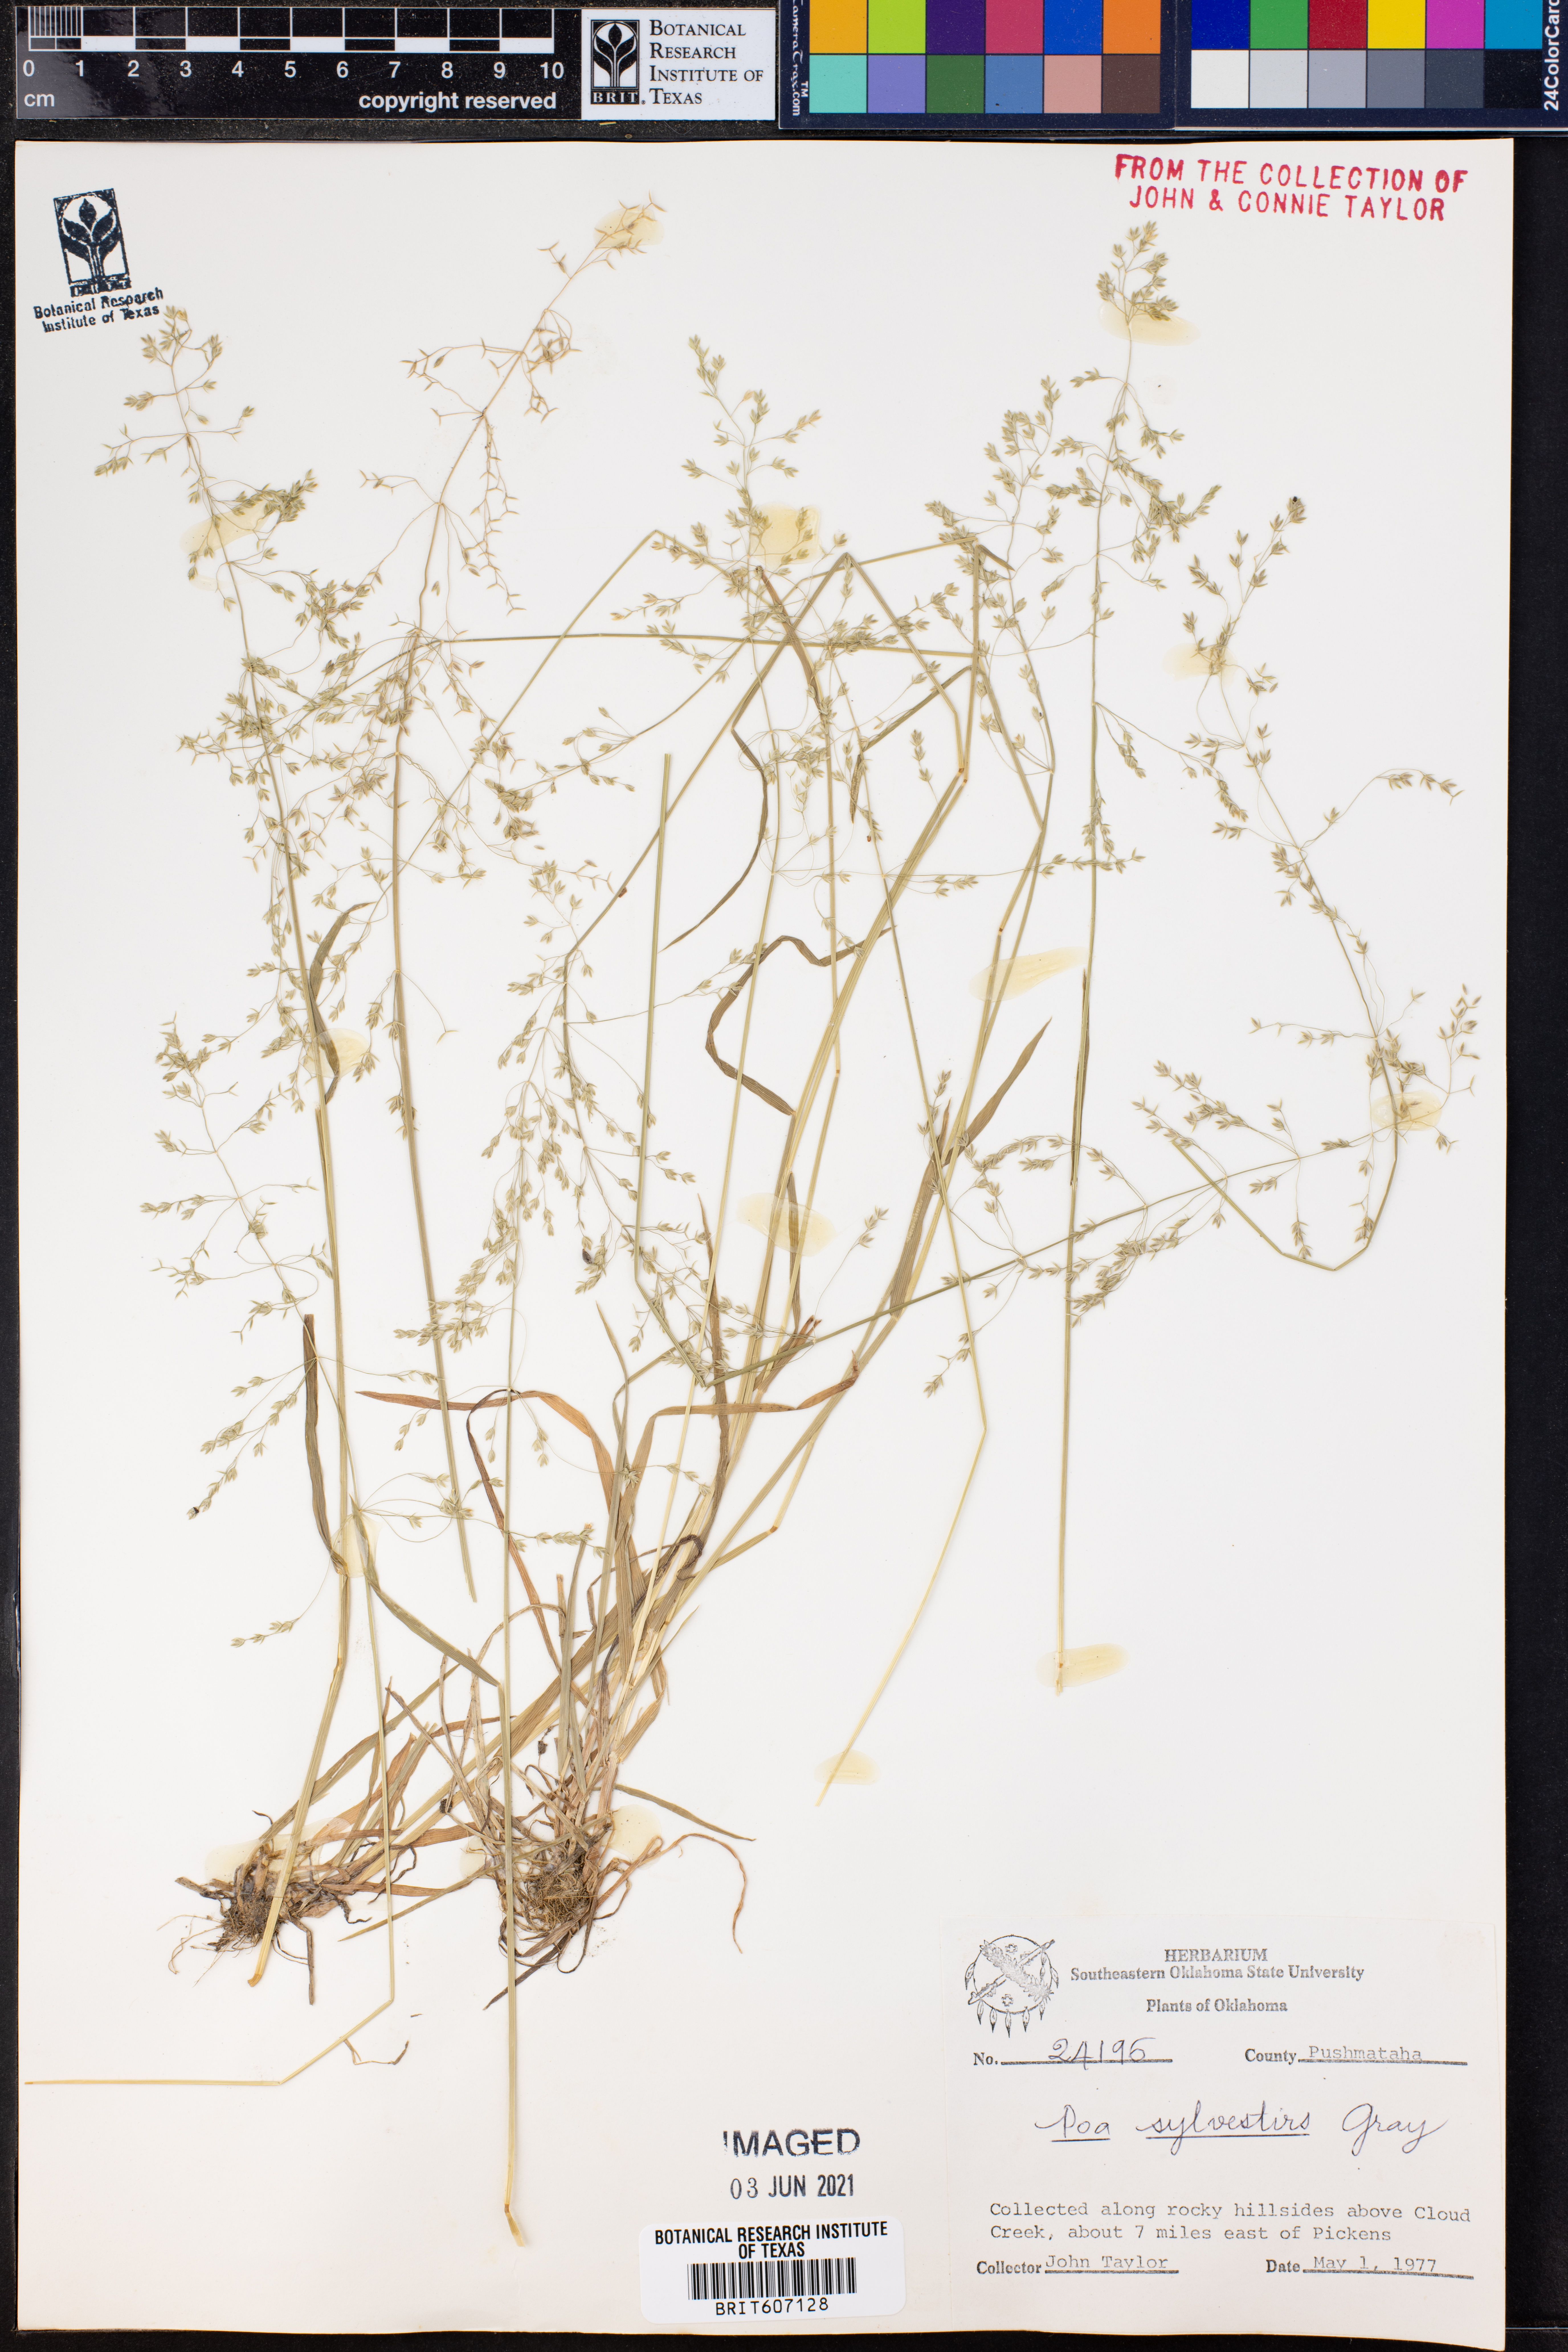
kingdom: Plantae
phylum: Tracheophyta
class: Liliopsida
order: Poales
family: Poaceae
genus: Poa
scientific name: Poa sylvestris
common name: North american woodland bluegrass
